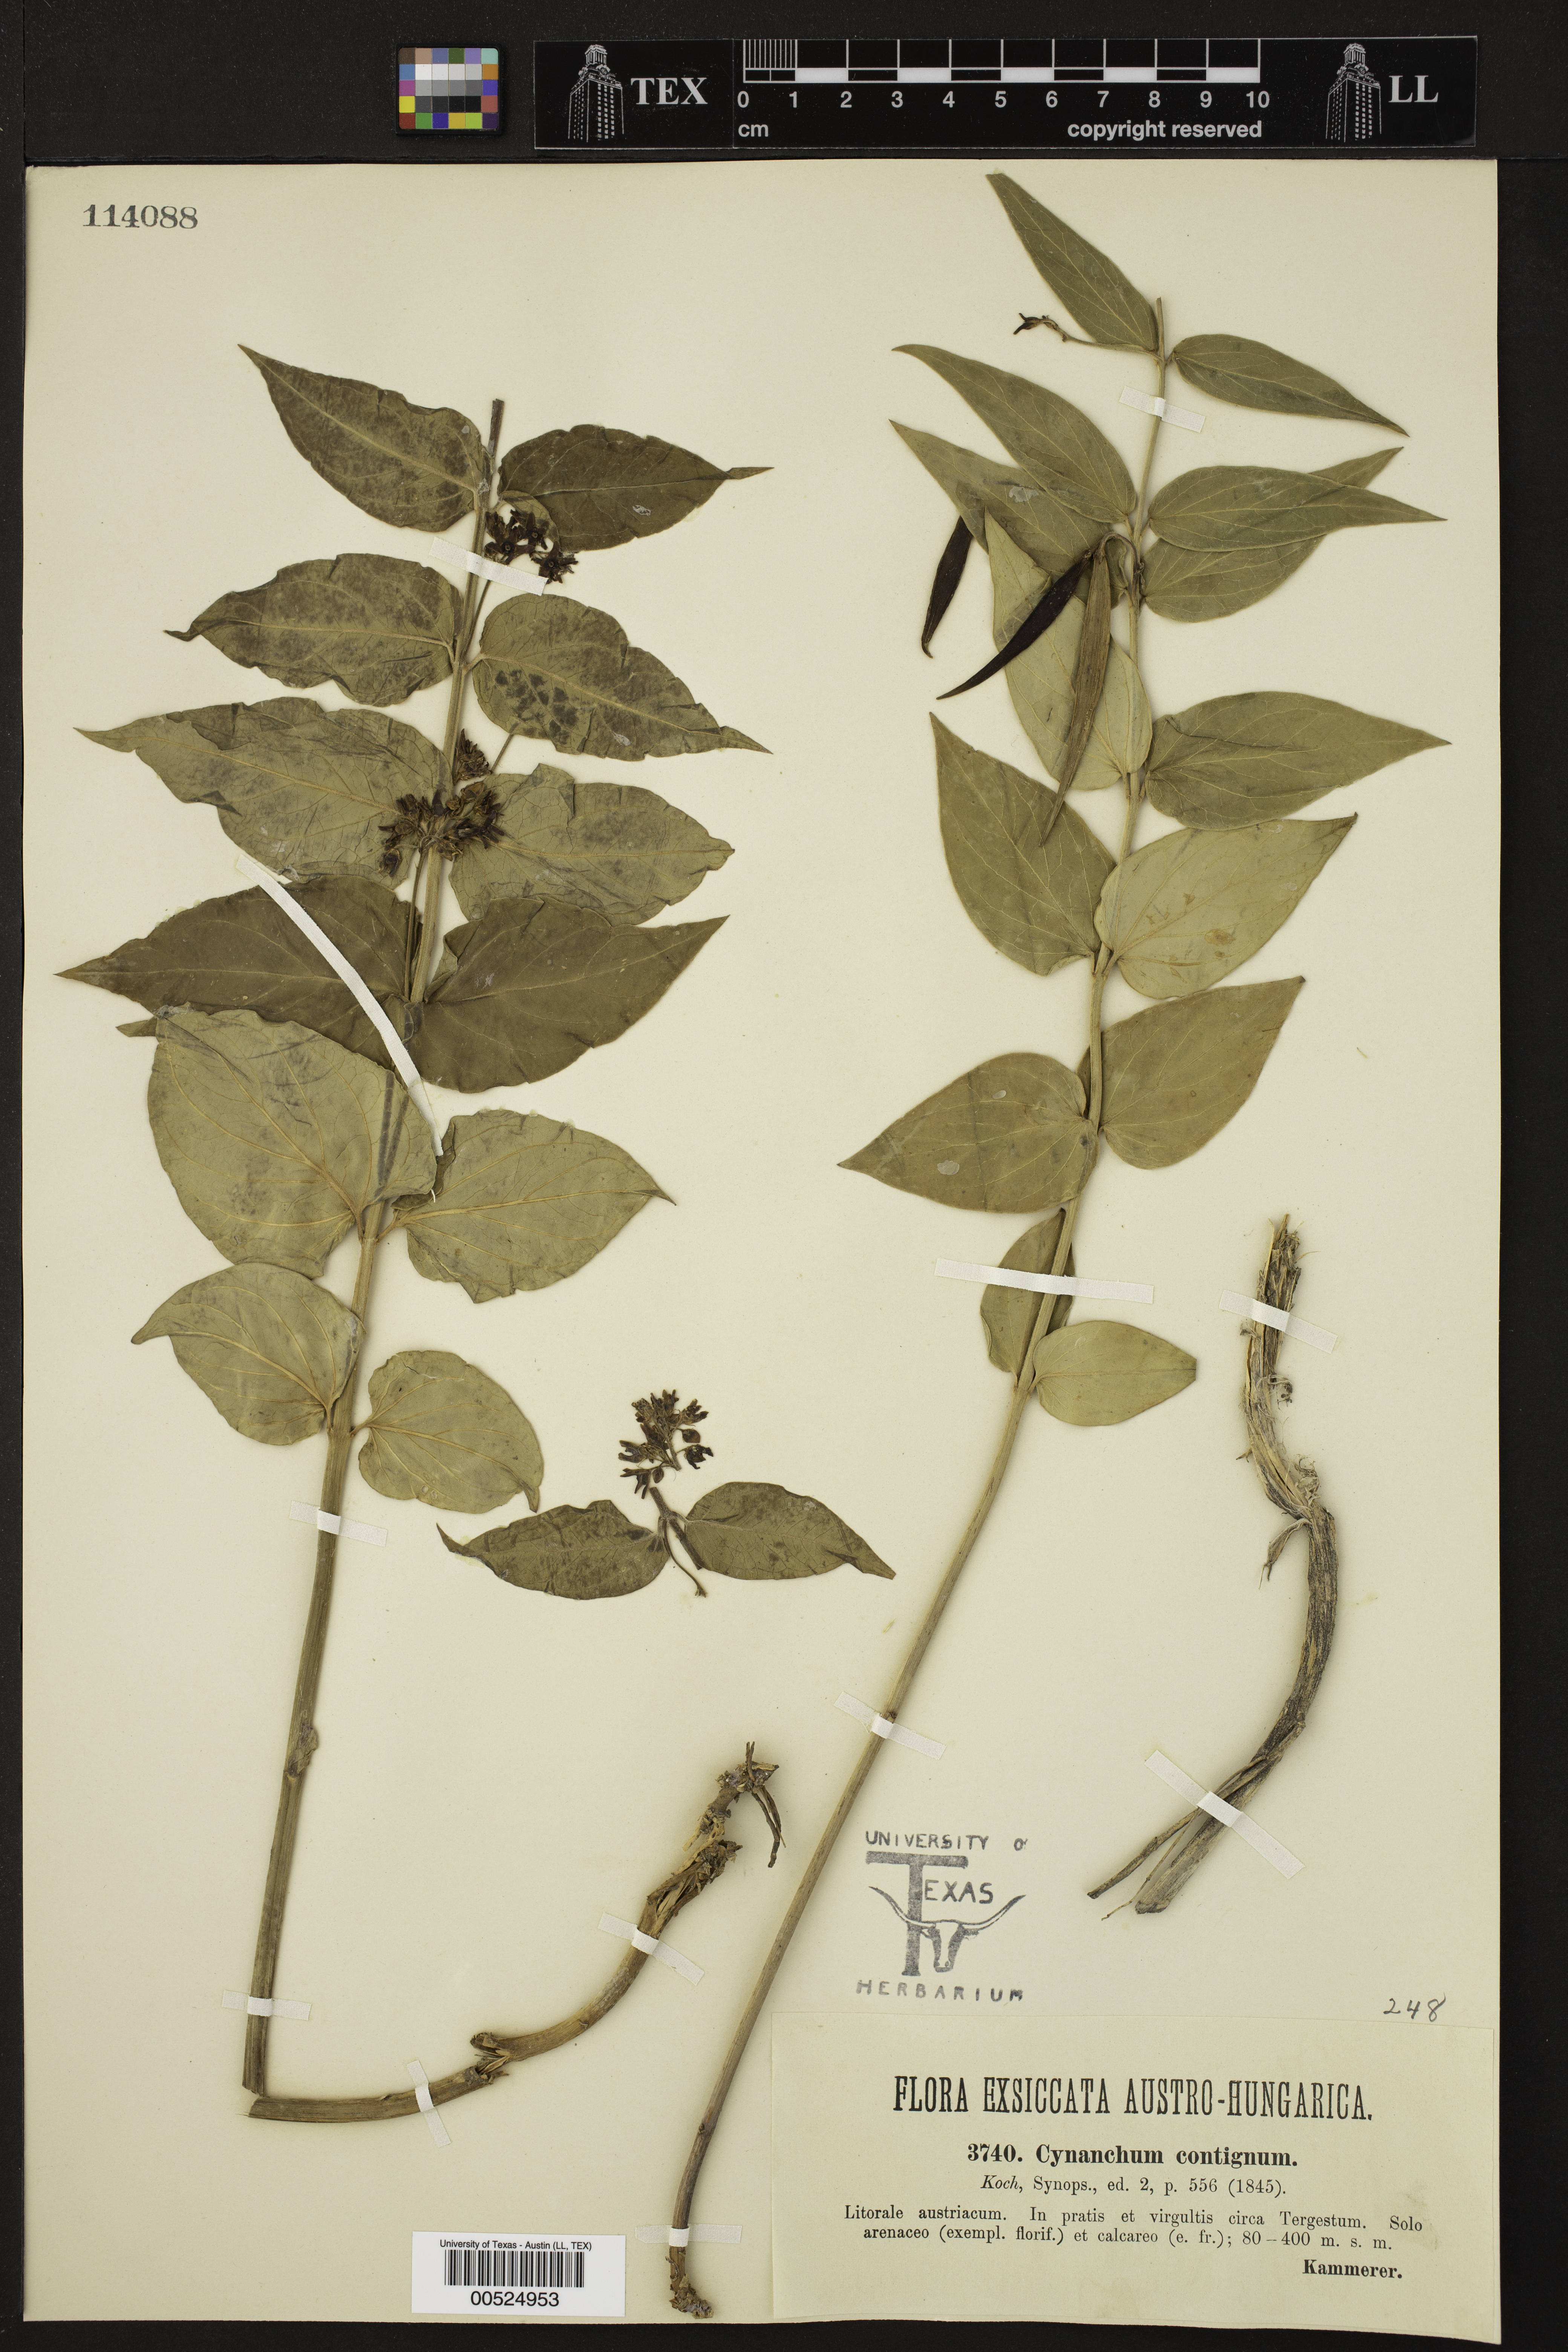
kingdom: Plantae
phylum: Tracheophyta
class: Magnoliopsida
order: Gentianales
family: Apocynaceae
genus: Vincetoxicum
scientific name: Vincetoxicum hirundinaria
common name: White swallowwort
